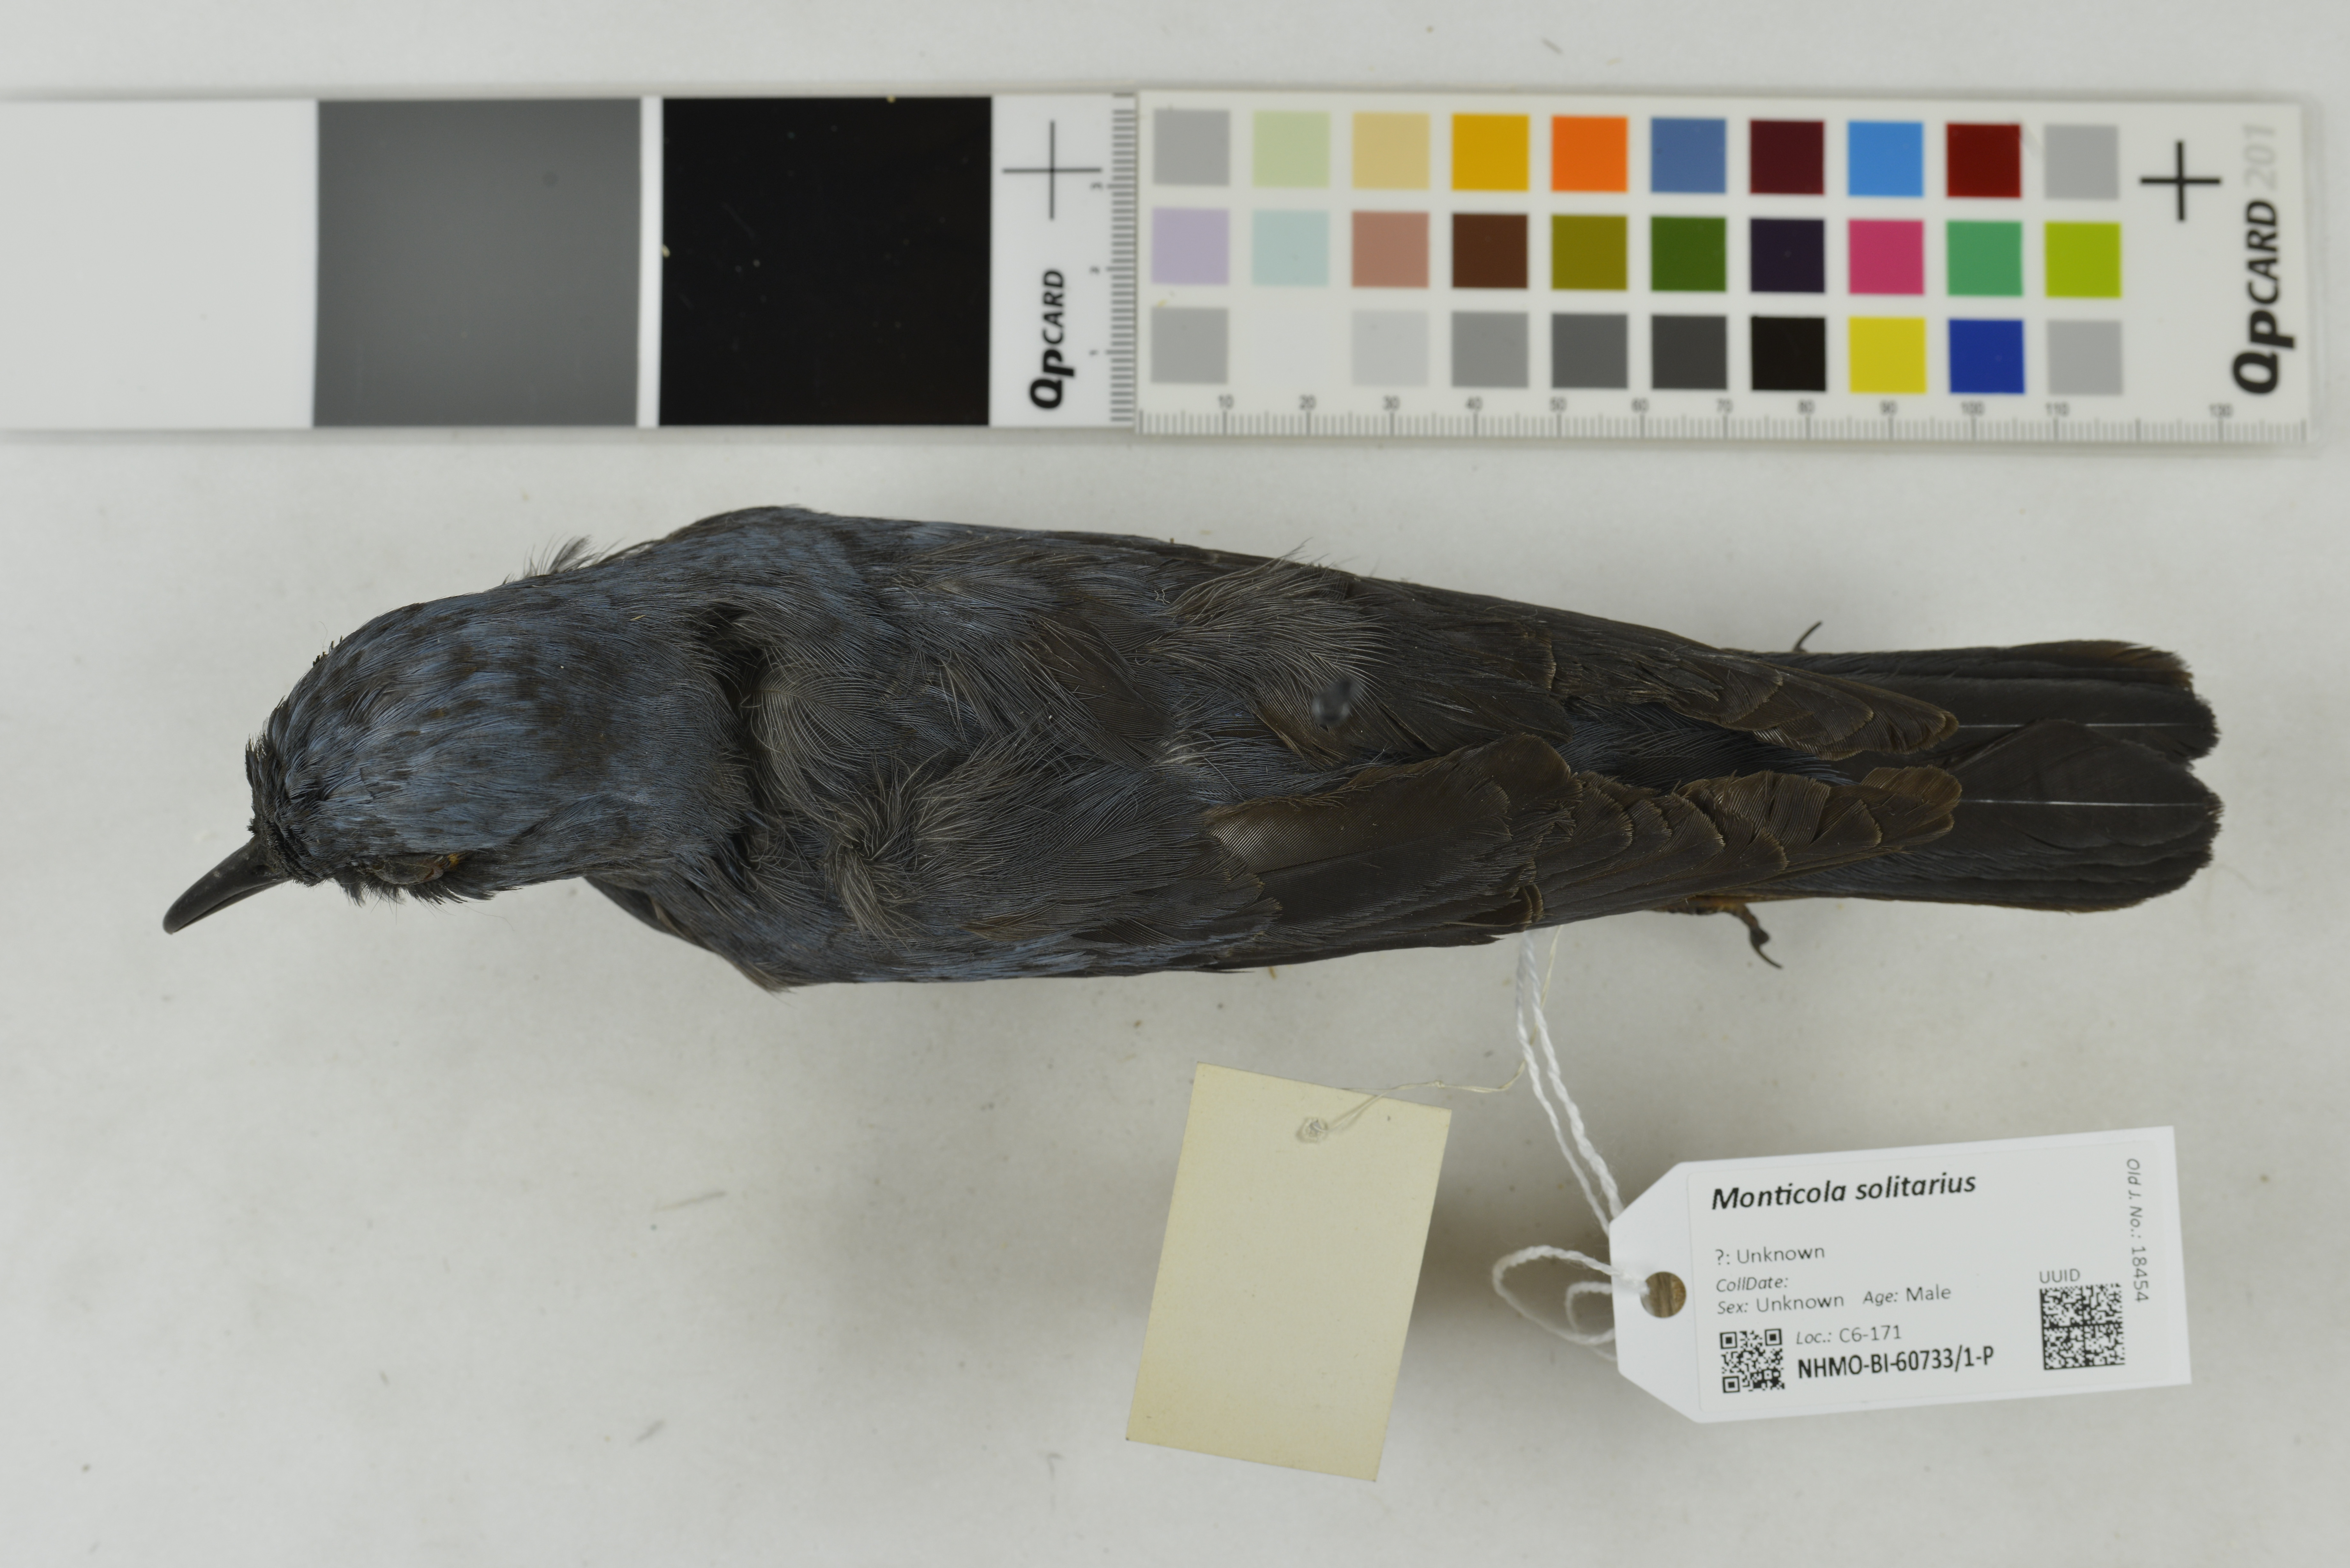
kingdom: Animalia
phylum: Chordata
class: Aves
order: Passeriformes
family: Muscicapidae
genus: Monticola
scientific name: Monticola solitarius
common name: Blue rock thrush
